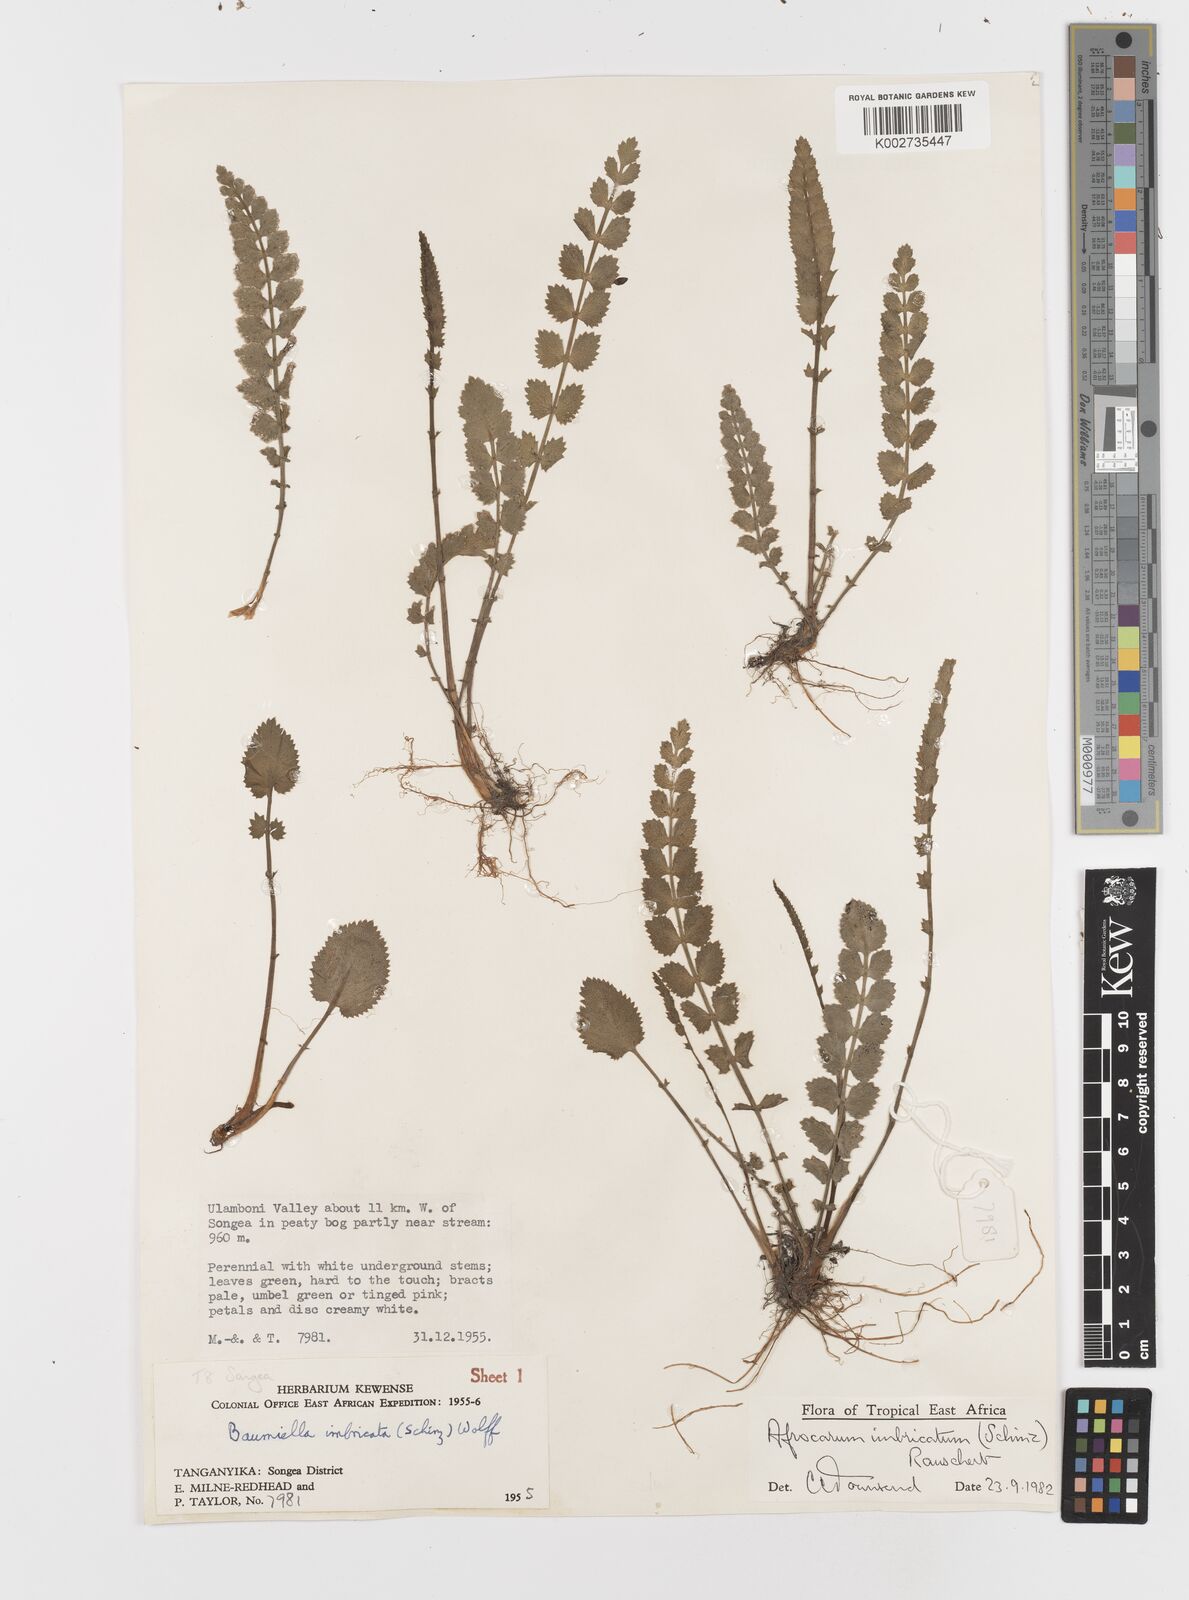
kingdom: Plantae
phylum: Tracheophyta
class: Magnoliopsida
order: Apiales
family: Apiaceae
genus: Berula
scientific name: Berula imbricata
